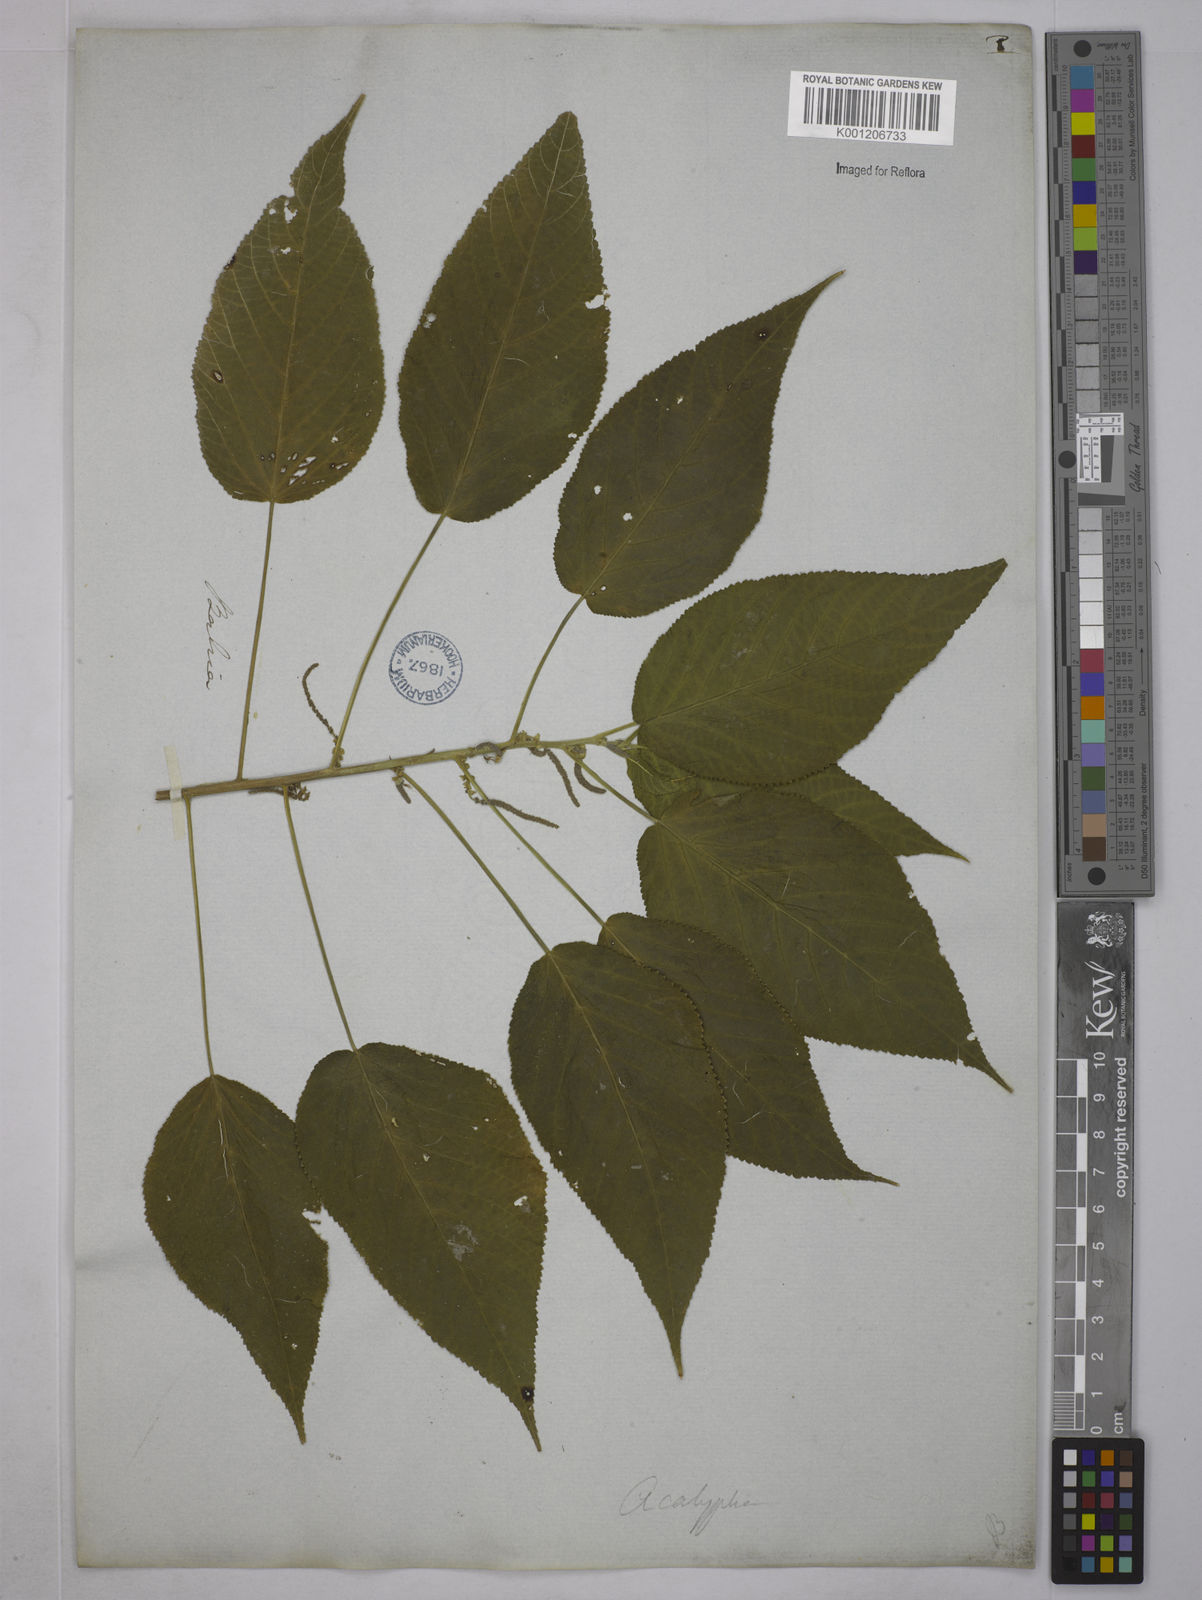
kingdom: Plantae
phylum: Tracheophyta
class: Magnoliopsida
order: Malpighiales
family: Euphorbiaceae
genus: Acalypha
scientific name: Acalypha weddelliana
